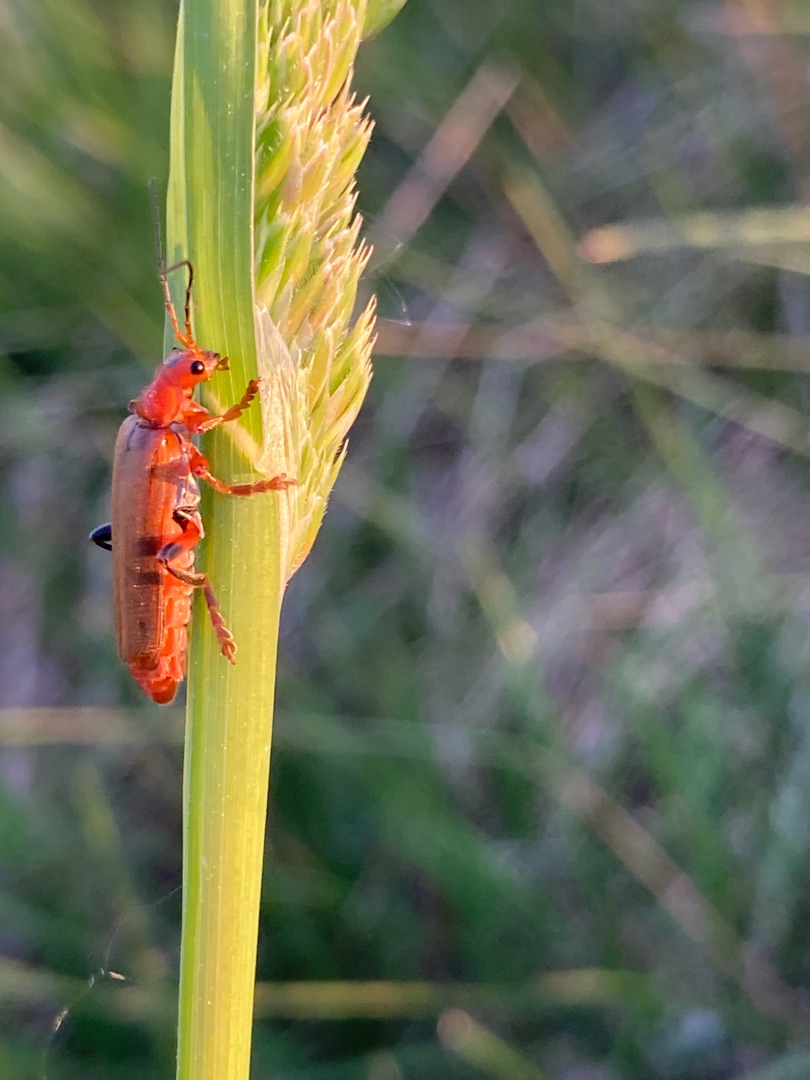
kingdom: Animalia
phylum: Arthropoda
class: Insecta
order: Coleoptera
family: Cantharidae
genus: Cantharis
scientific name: Cantharis livida
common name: Gul blødvinge
